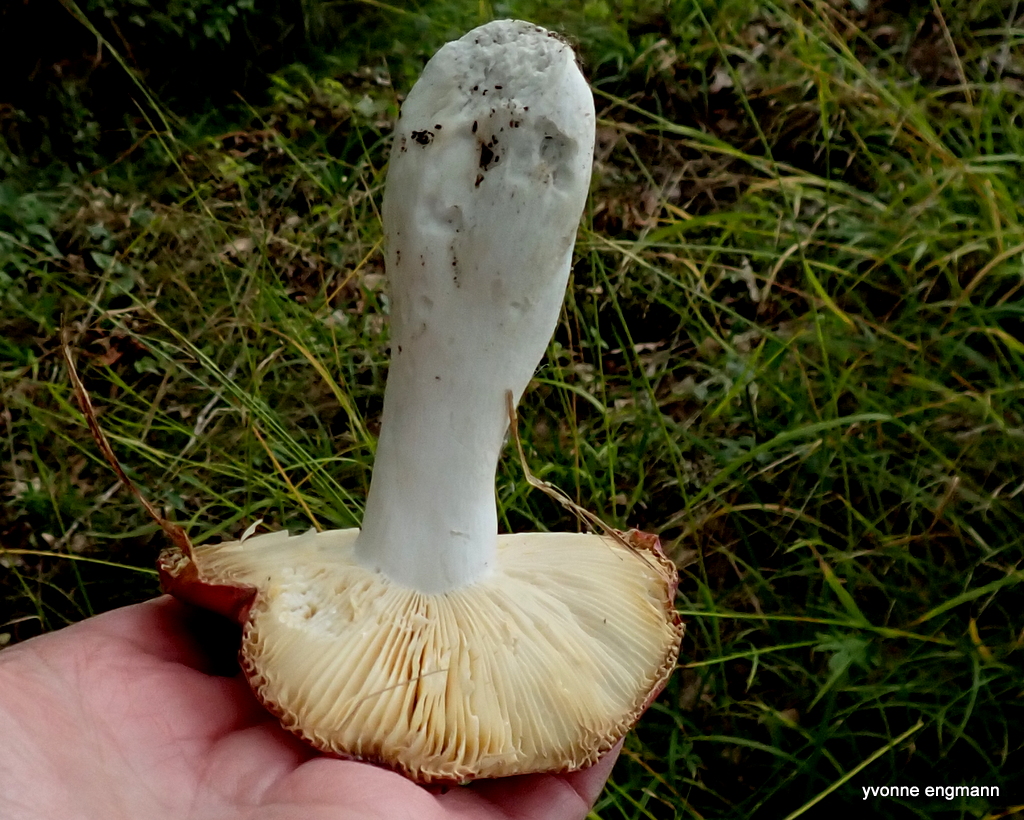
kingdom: Fungi
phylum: Basidiomycota
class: Agaricomycetes
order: Russulales
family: Russulaceae
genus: Russula
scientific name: Russula
